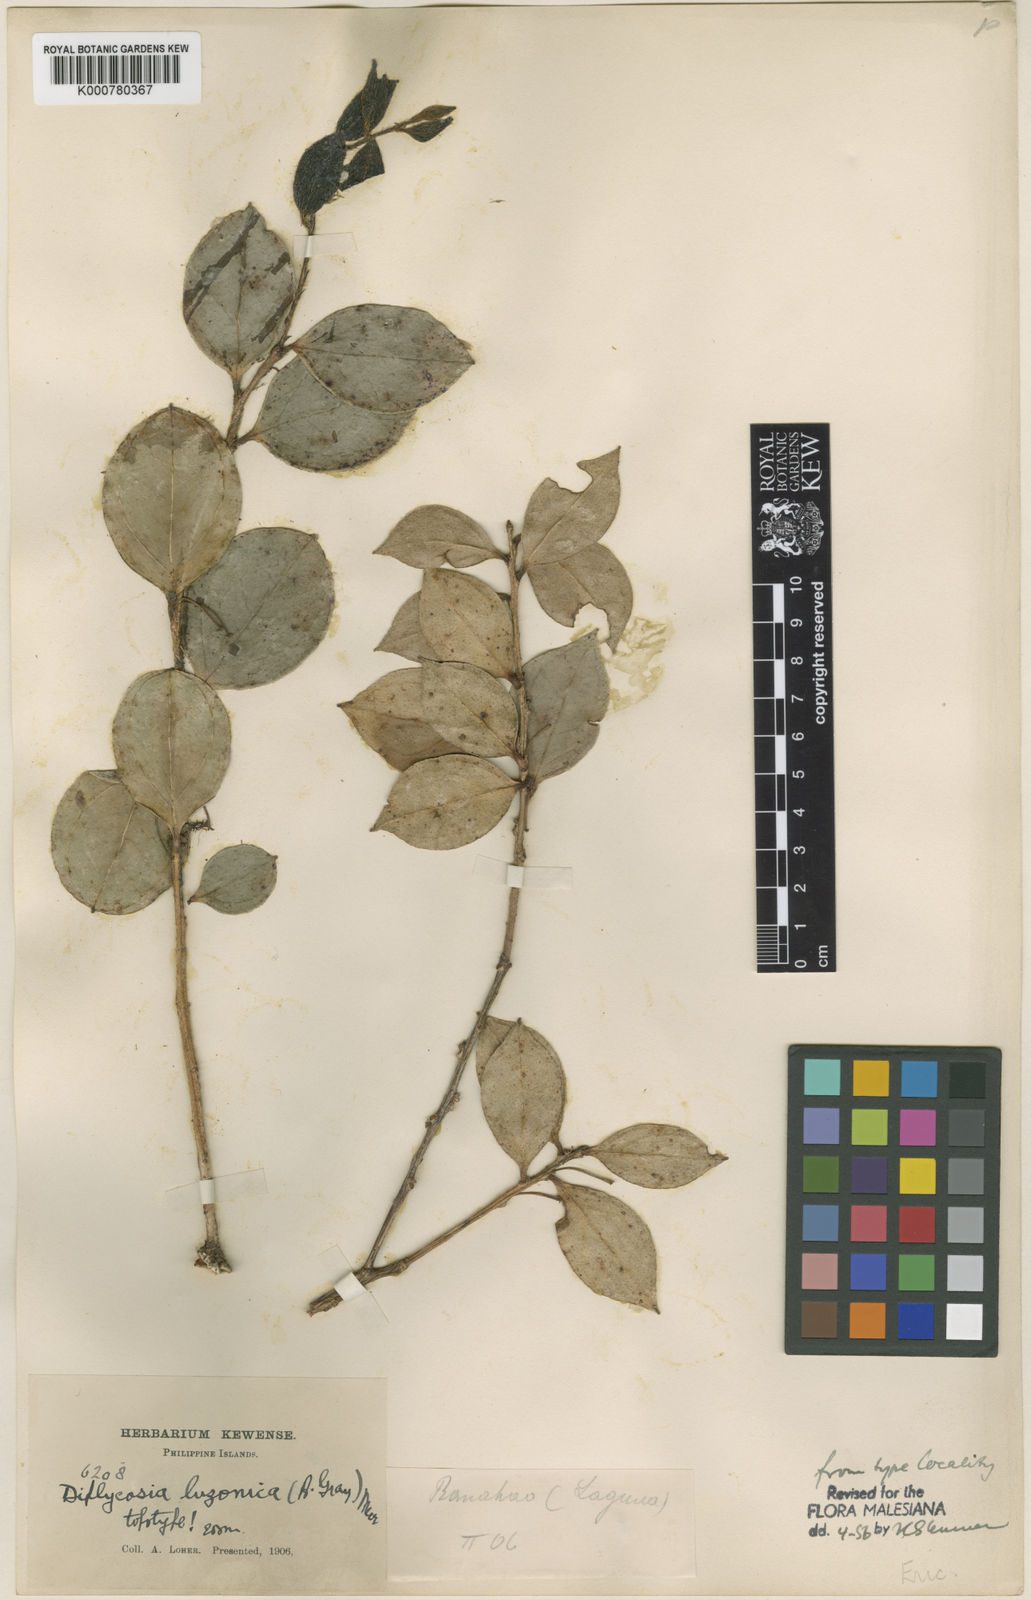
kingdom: Plantae
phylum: Tracheophyta
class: Magnoliopsida
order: Ericales
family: Ericaceae
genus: Gaultheria
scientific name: Gaultheria luzonica
